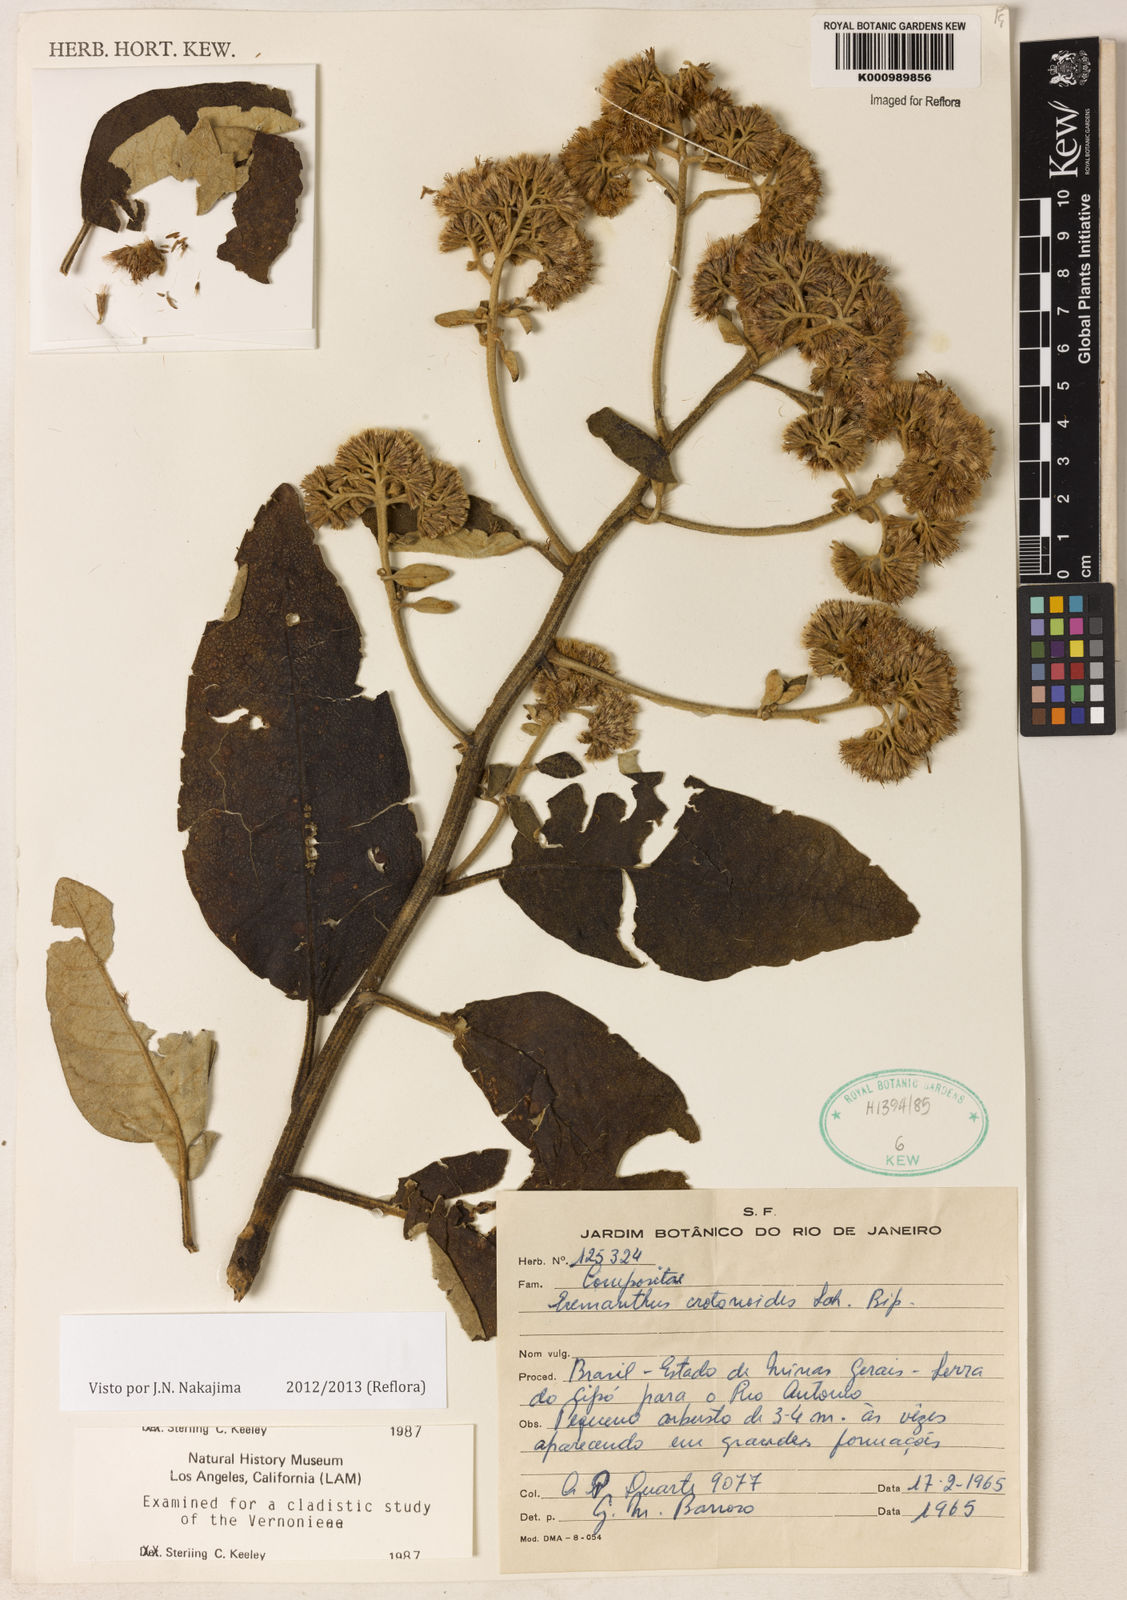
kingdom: Plantae
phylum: Tracheophyta
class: Magnoliopsida
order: Asterales
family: Asteraceae
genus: Eremanthus
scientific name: Eremanthus crotonoides
